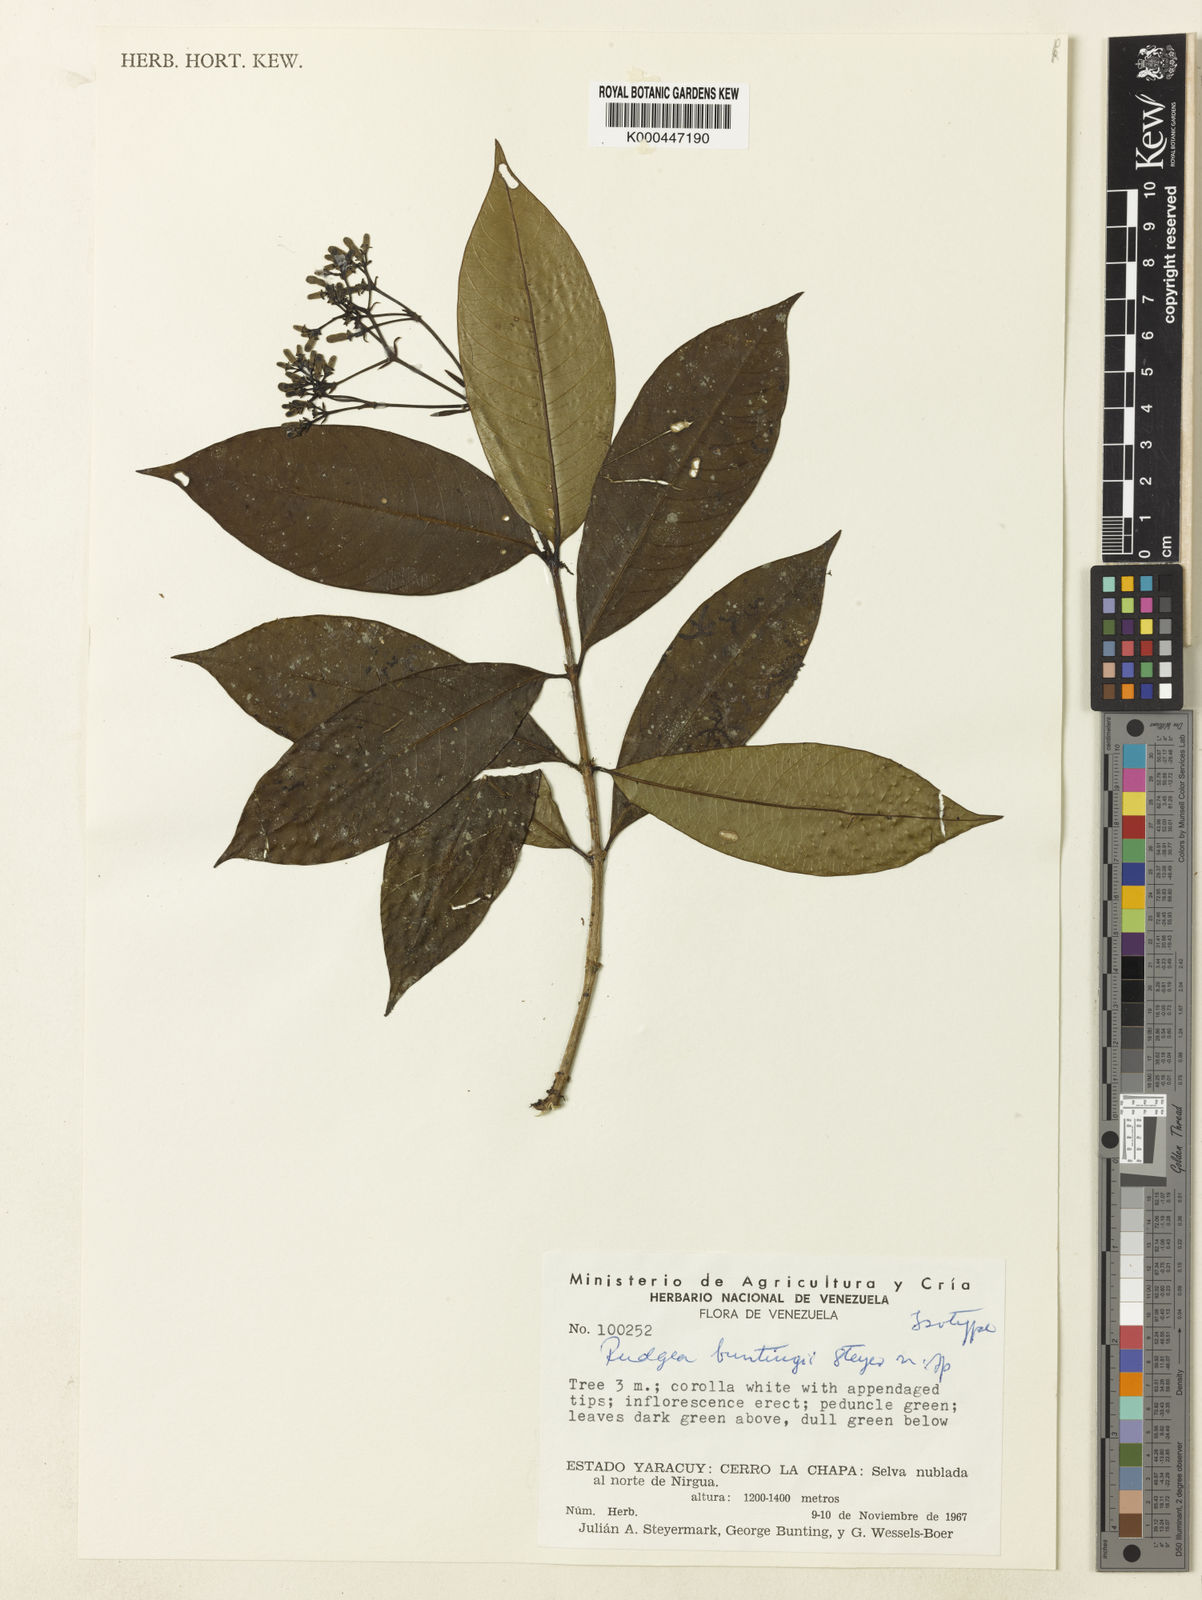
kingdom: Plantae
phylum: Tracheophyta
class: Magnoliopsida
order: Gentianales
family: Rubiaceae
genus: Rudgea
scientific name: Rudgea buntingii
